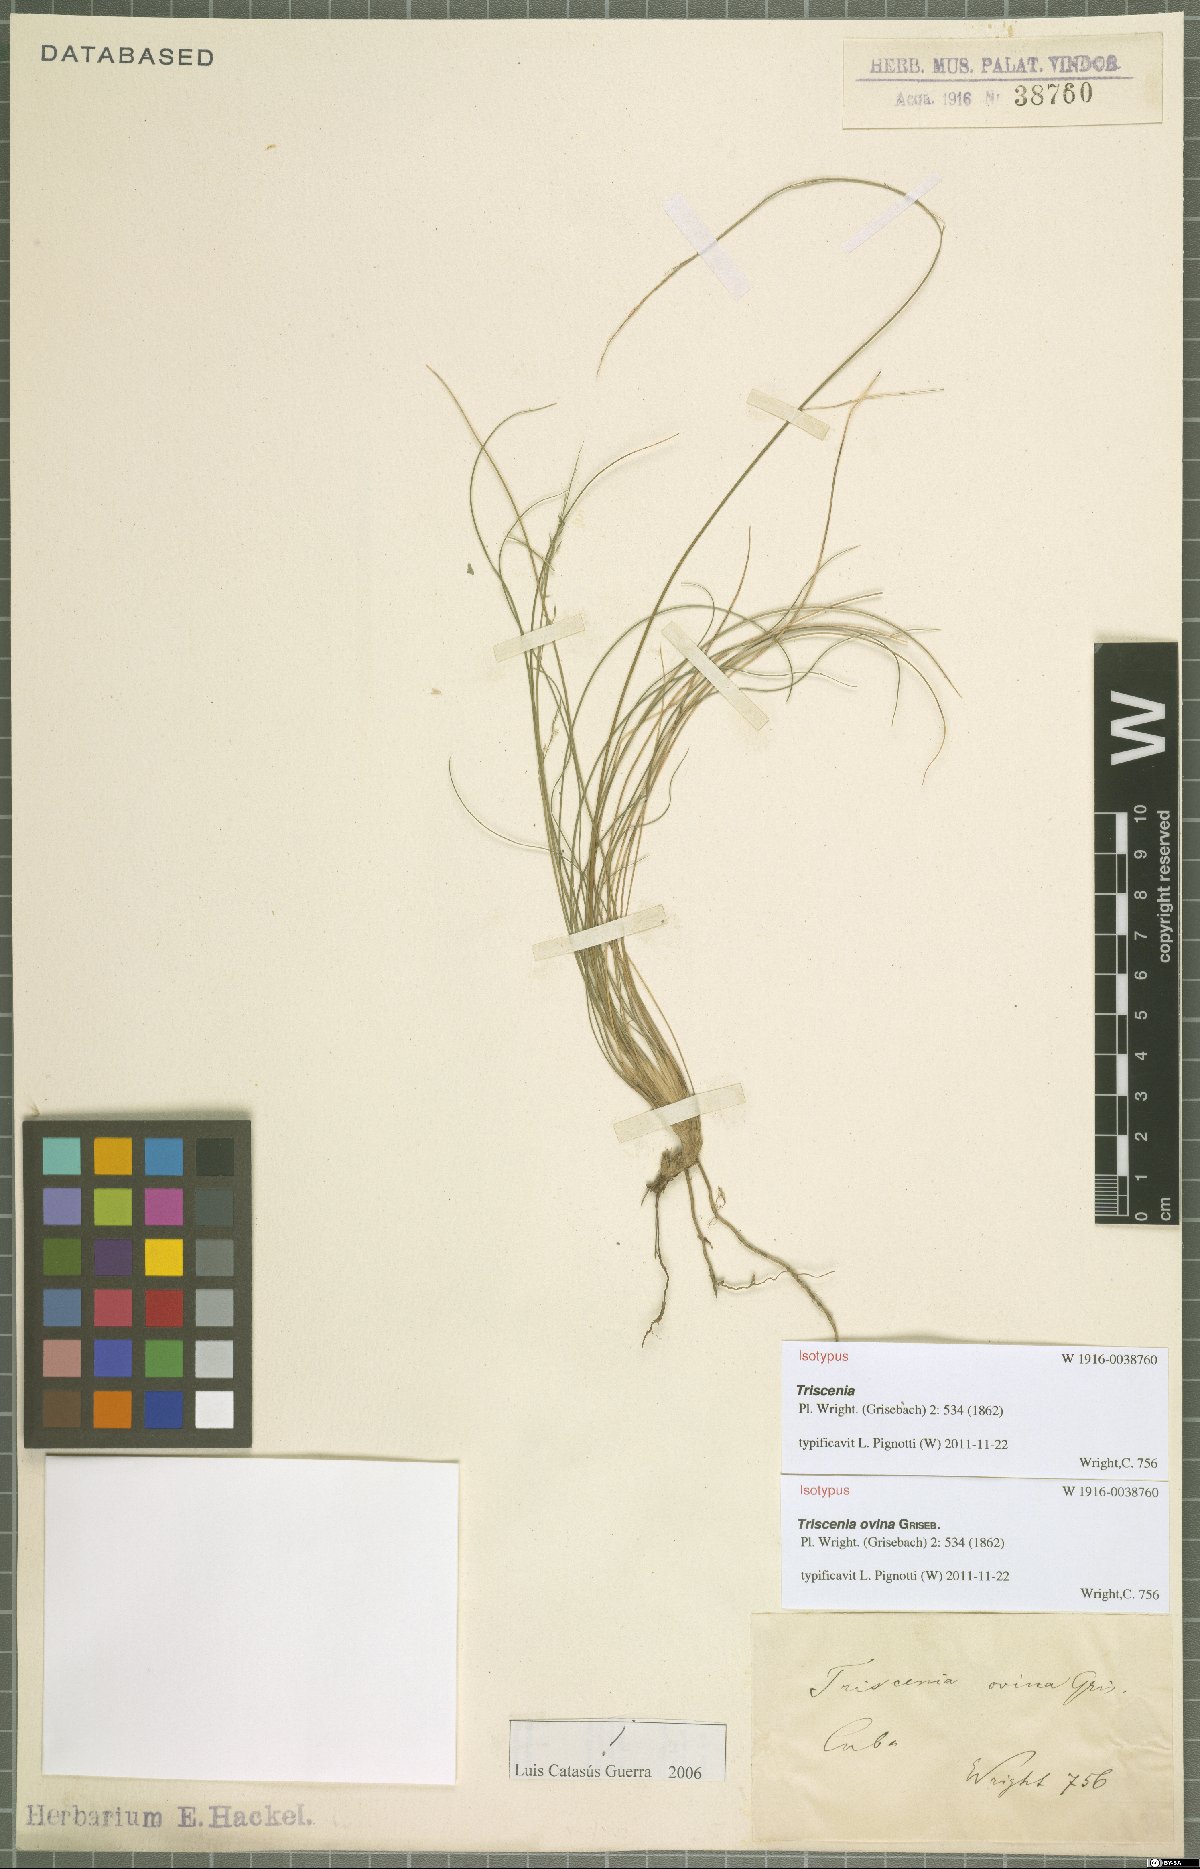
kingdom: Plantae
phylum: Tracheophyta
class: Liliopsida
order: Poales
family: Poaceae
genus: Triscenia
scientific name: Triscenia ovina
